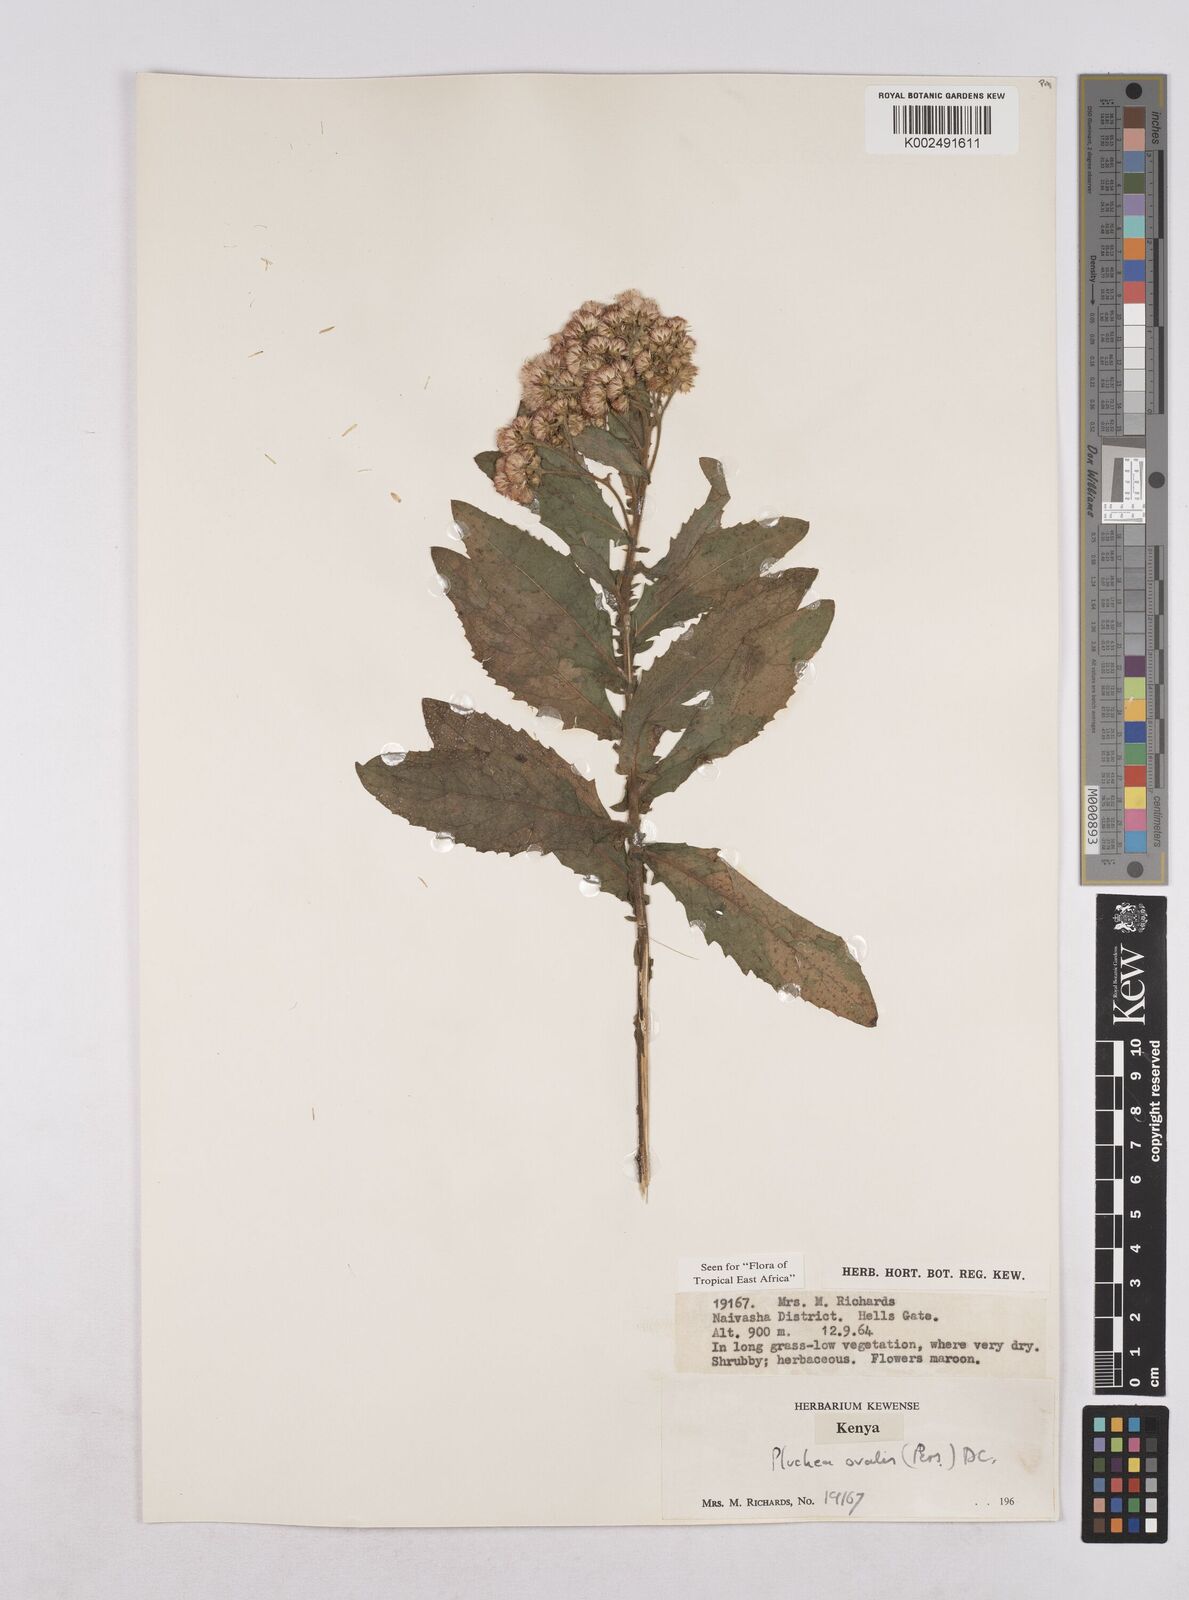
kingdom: Plantae
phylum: Tracheophyta
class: Magnoliopsida
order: Asterales
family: Asteraceae
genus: Pluchea
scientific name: Pluchea ovalis
